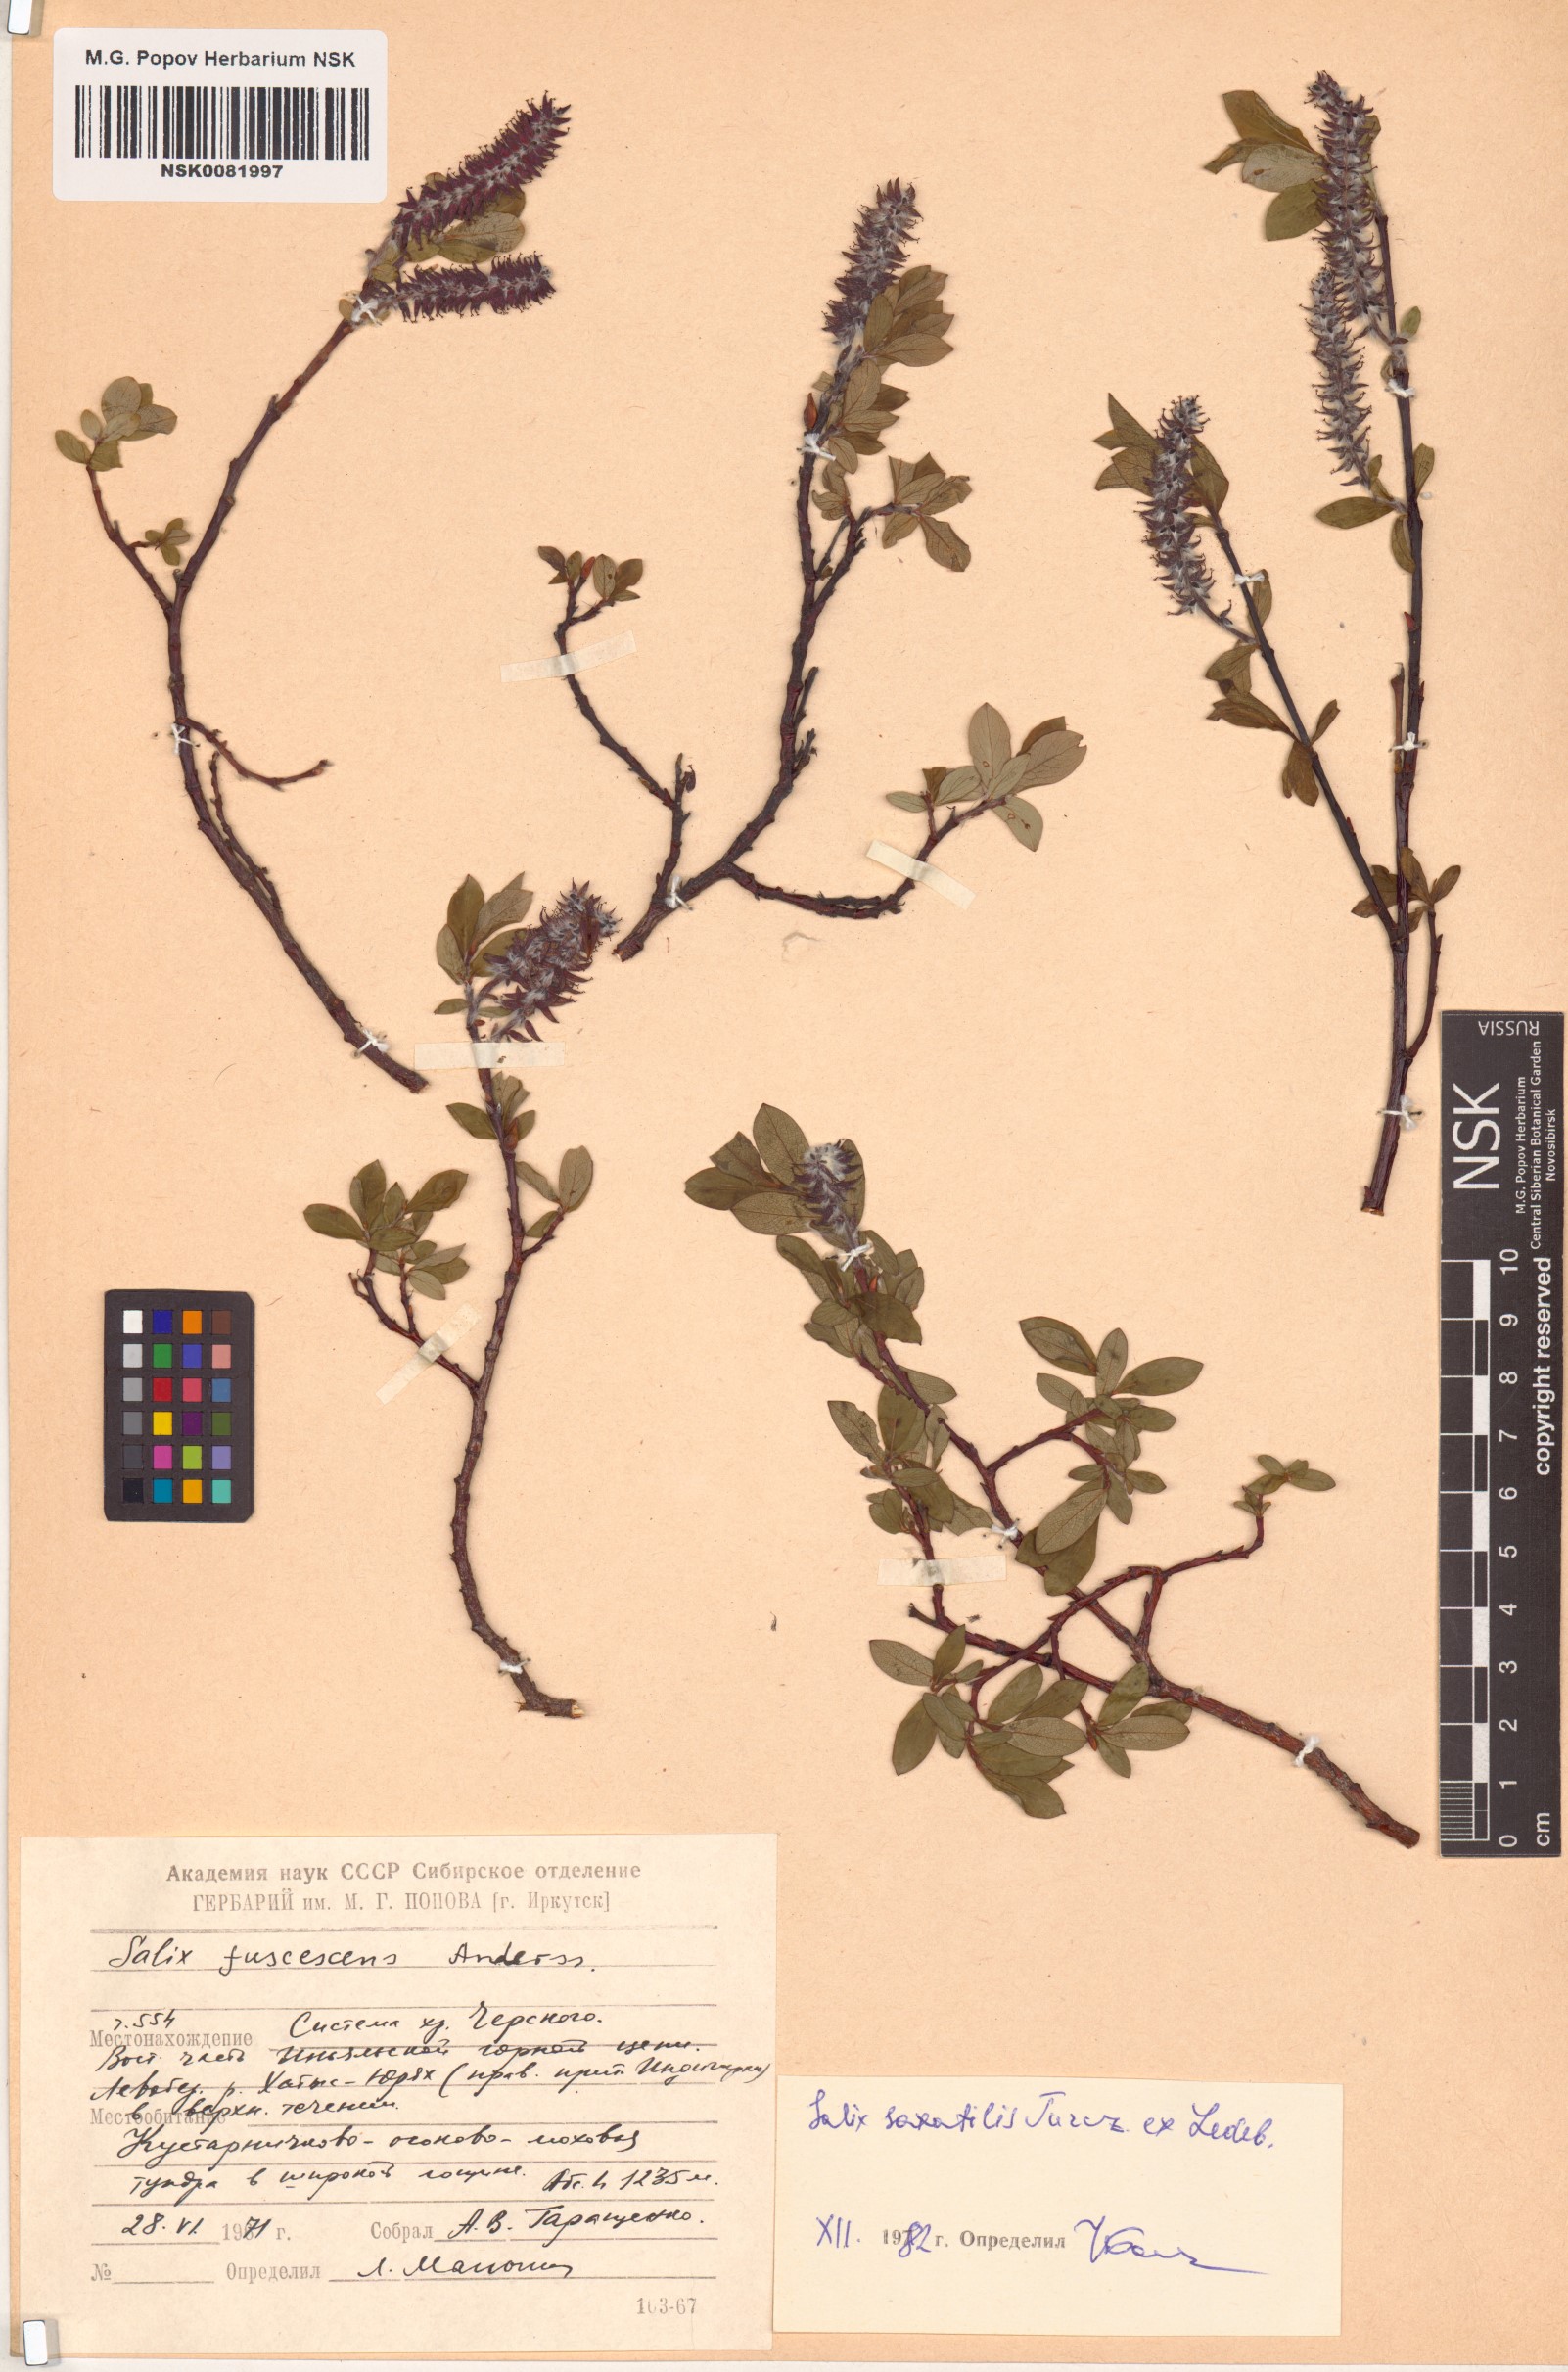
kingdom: Plantae
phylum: Tracheophyta
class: Magnoliopsida
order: Malpighiales
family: Salicaceae
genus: Salix
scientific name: Salix saxatilis
